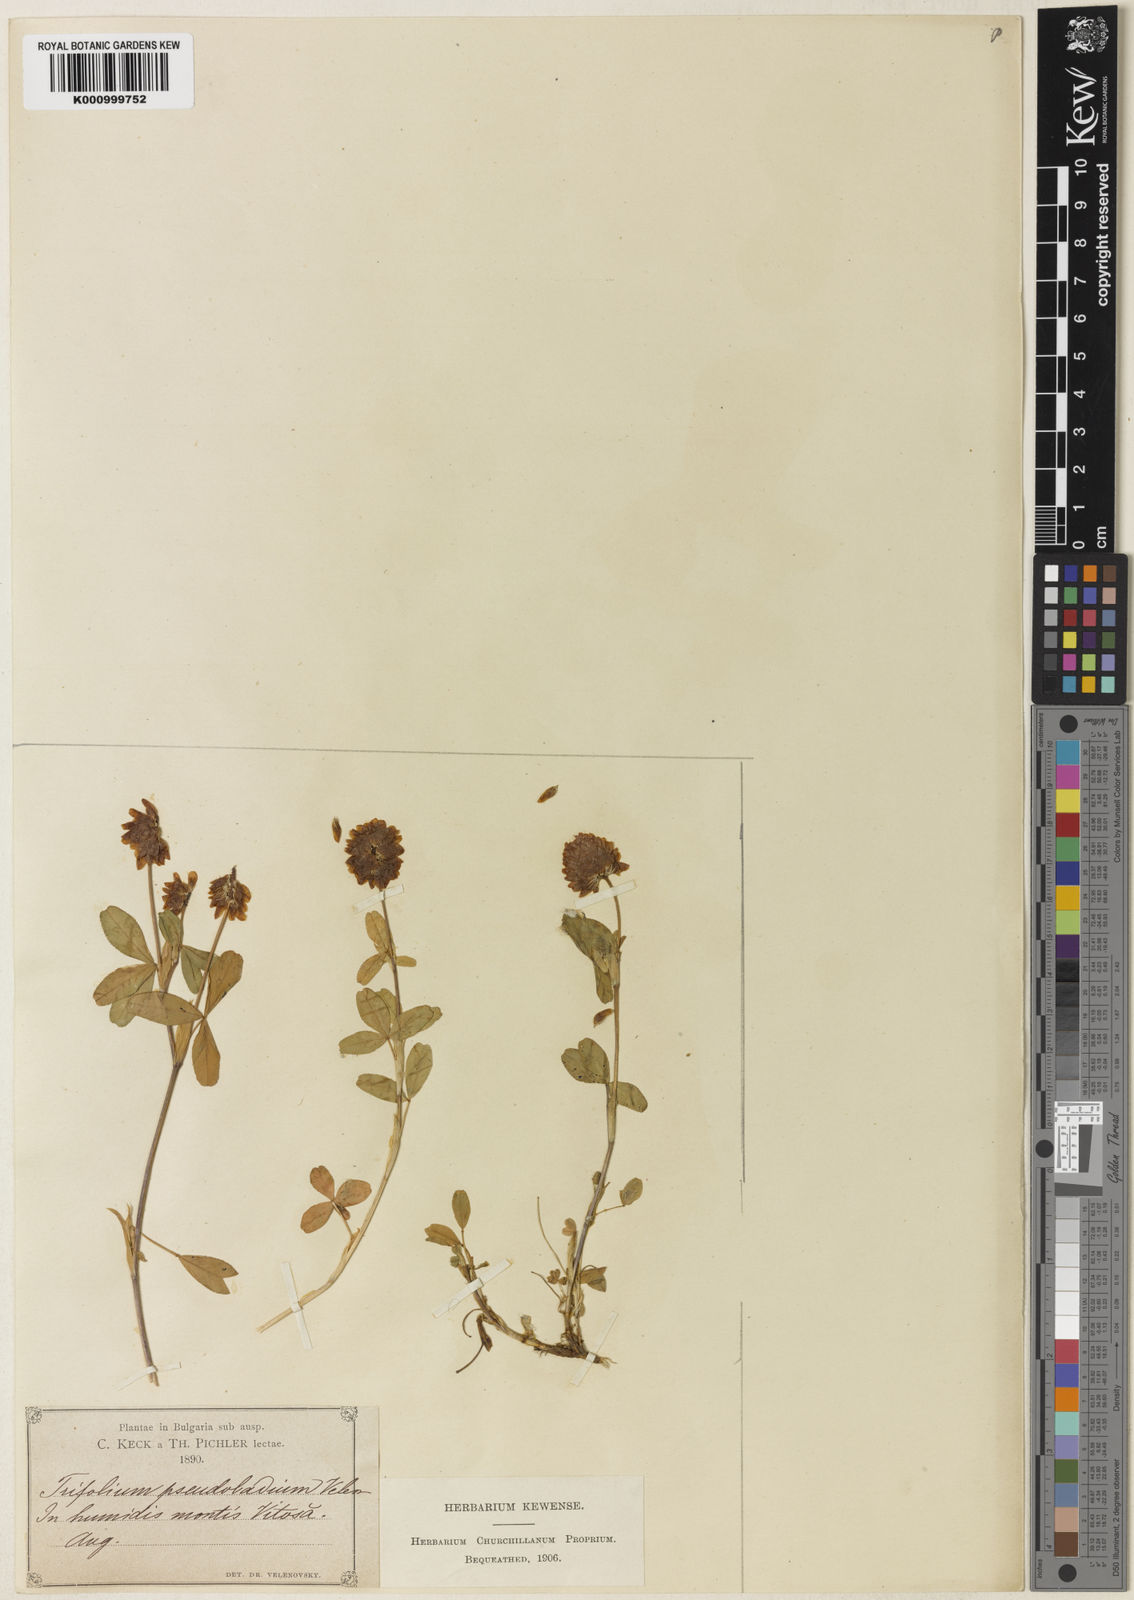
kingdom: Plantae
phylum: Tracheophyta
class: Magnoliopsida
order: Fabales
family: Fabaceae
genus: Trifolium
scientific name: Trifolium
